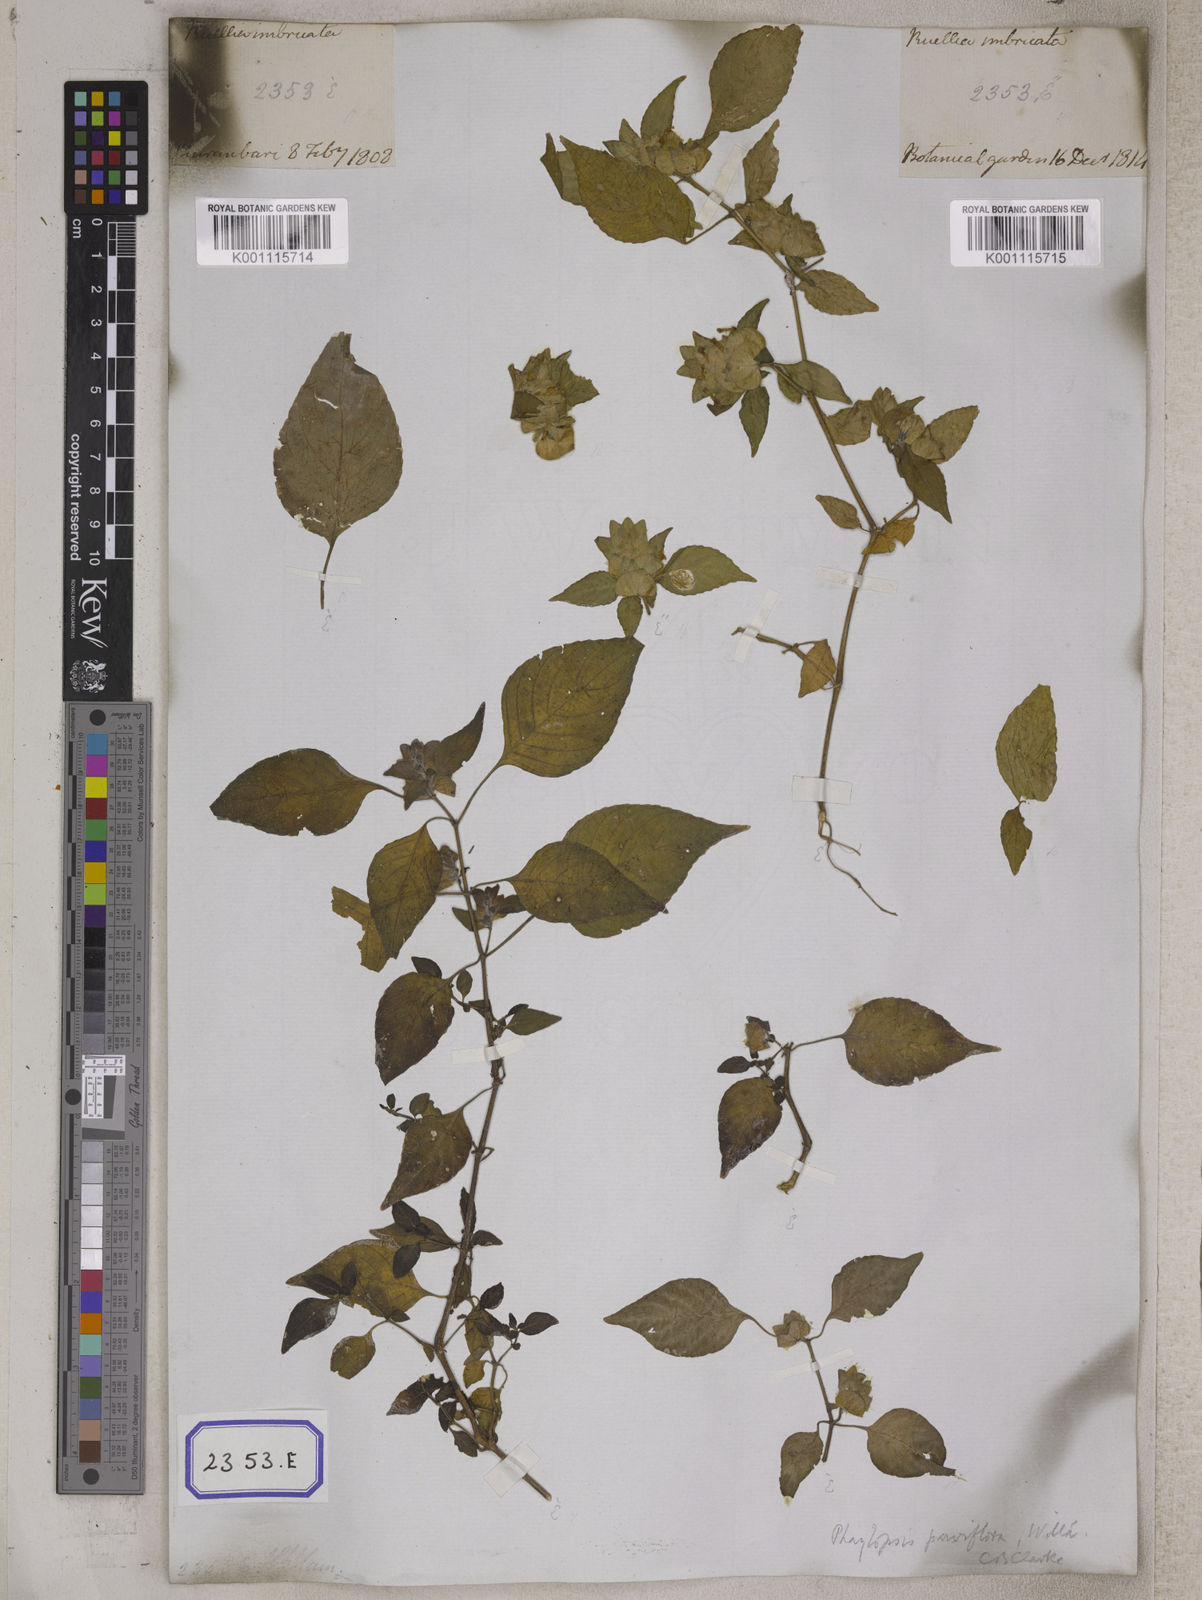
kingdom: Plantae
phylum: Tracheophyta
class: Magnoliopsida
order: Lamiales
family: Acanthaceae
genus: Phaulopsis
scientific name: Phaulopsis imbricata
